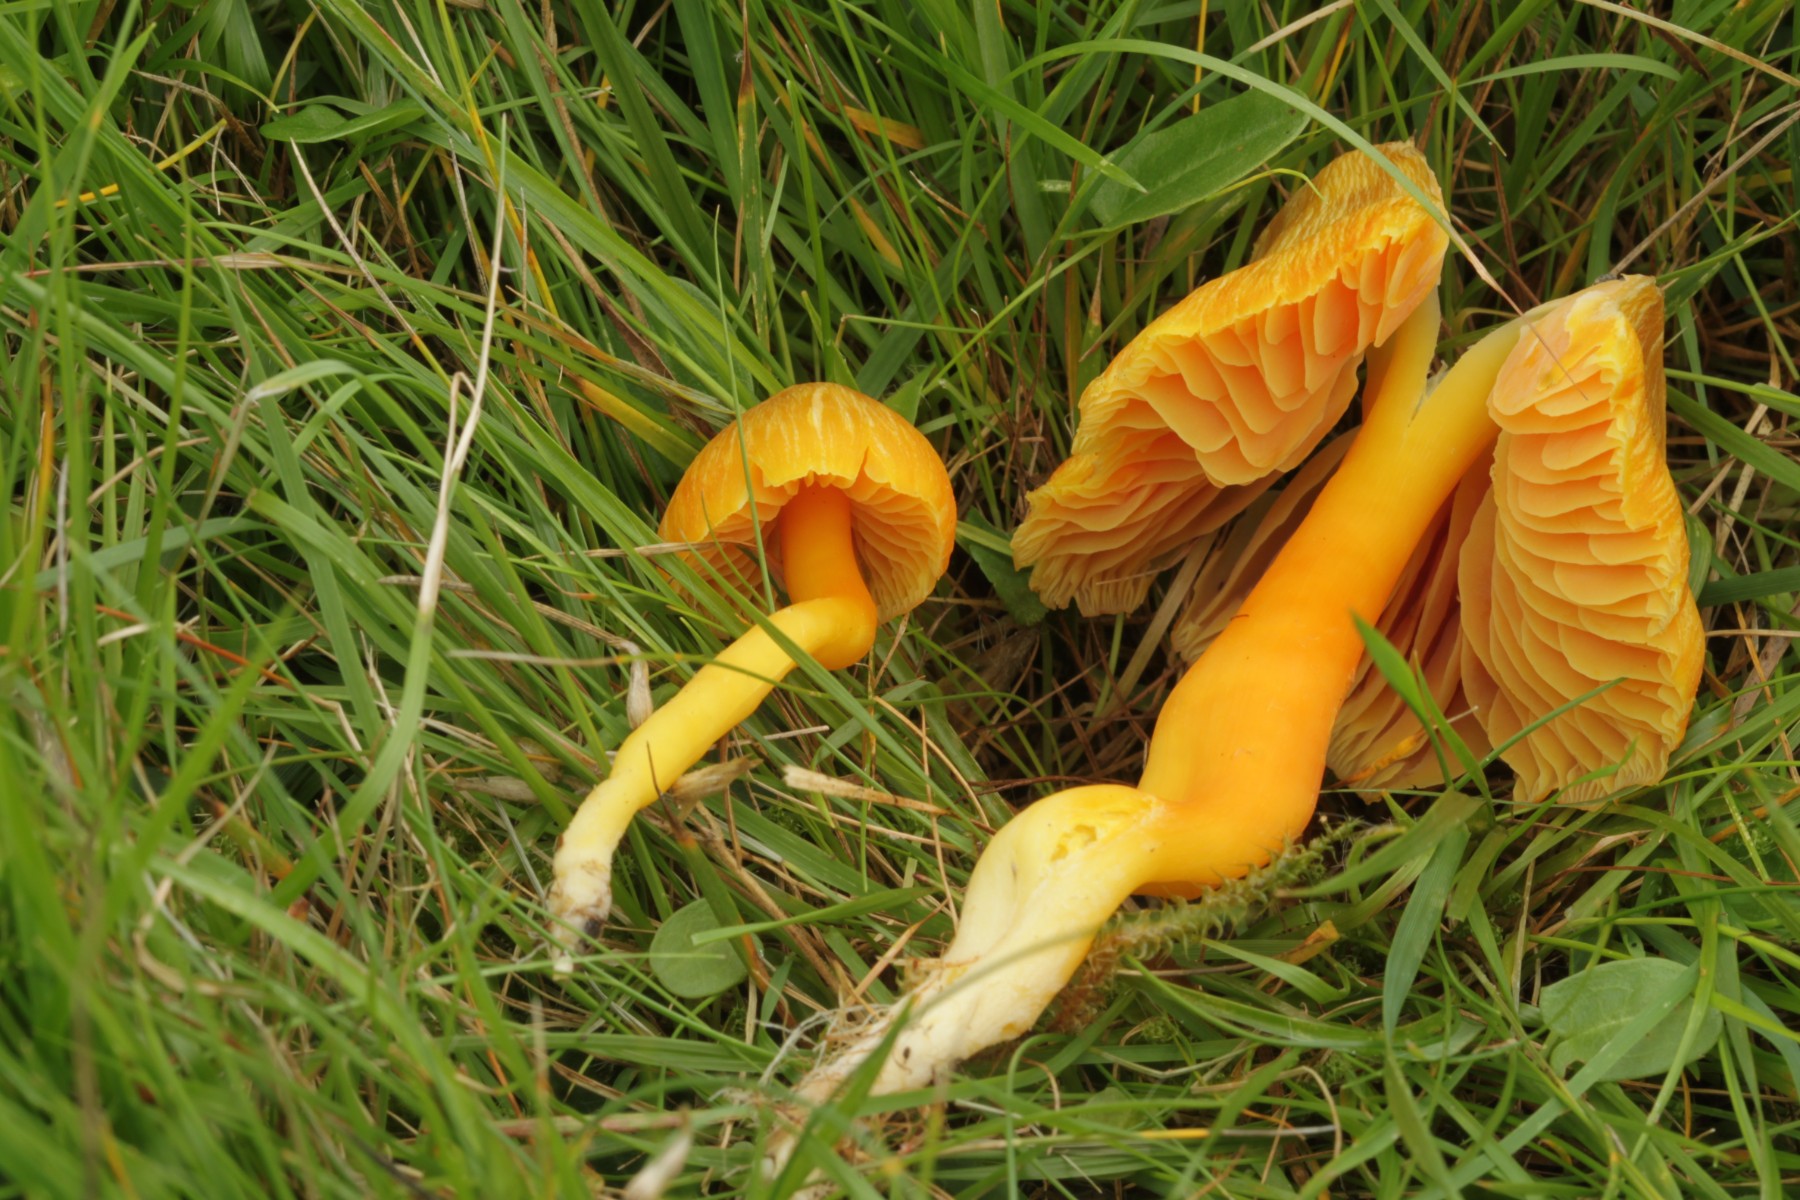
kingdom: Fungi
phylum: Basidiomycota
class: Agaricomycetes
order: Agaricales
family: Hygrophoraceae
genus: Hygrocybe
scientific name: Hygrocybe quieta
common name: tæge-vokshat
